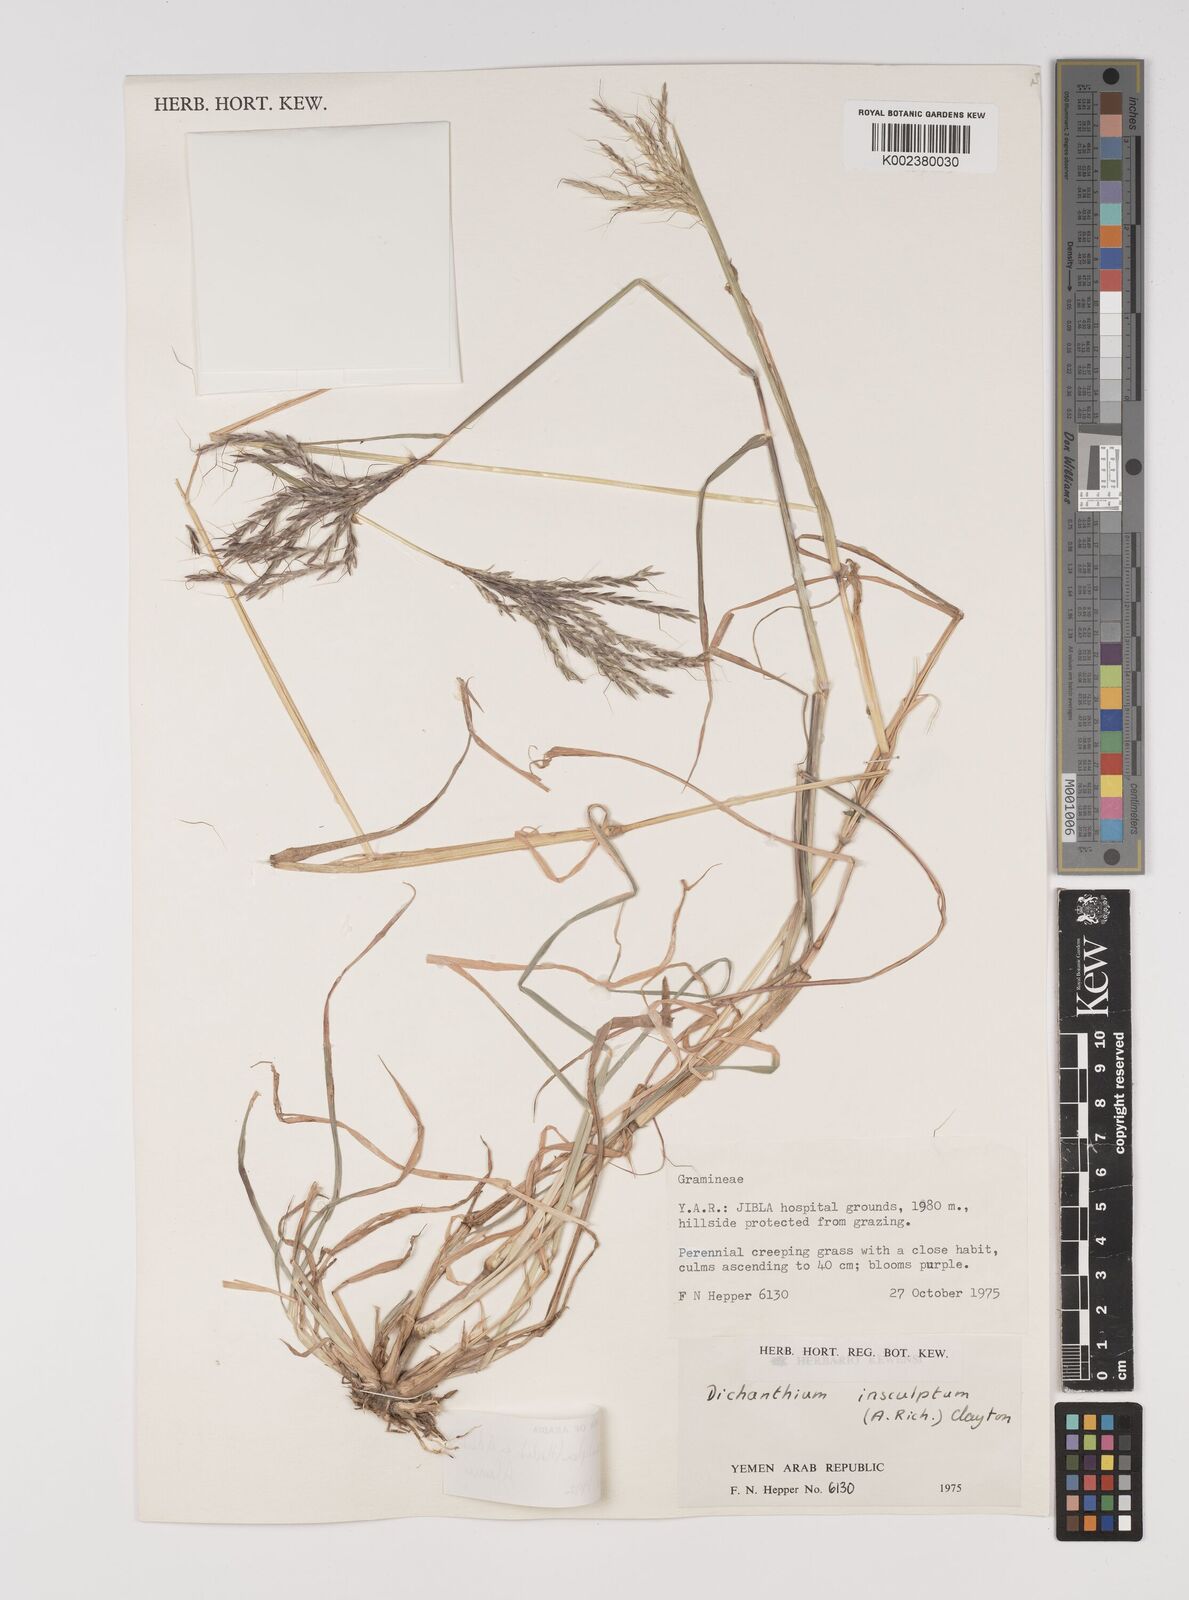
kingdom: Plantae
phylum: Tracheophyta
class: Liliopsida
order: Poales
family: Poaceae
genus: Bothriochloa
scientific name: Bothriochloa insculpta
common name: Creeping-bluegrass
